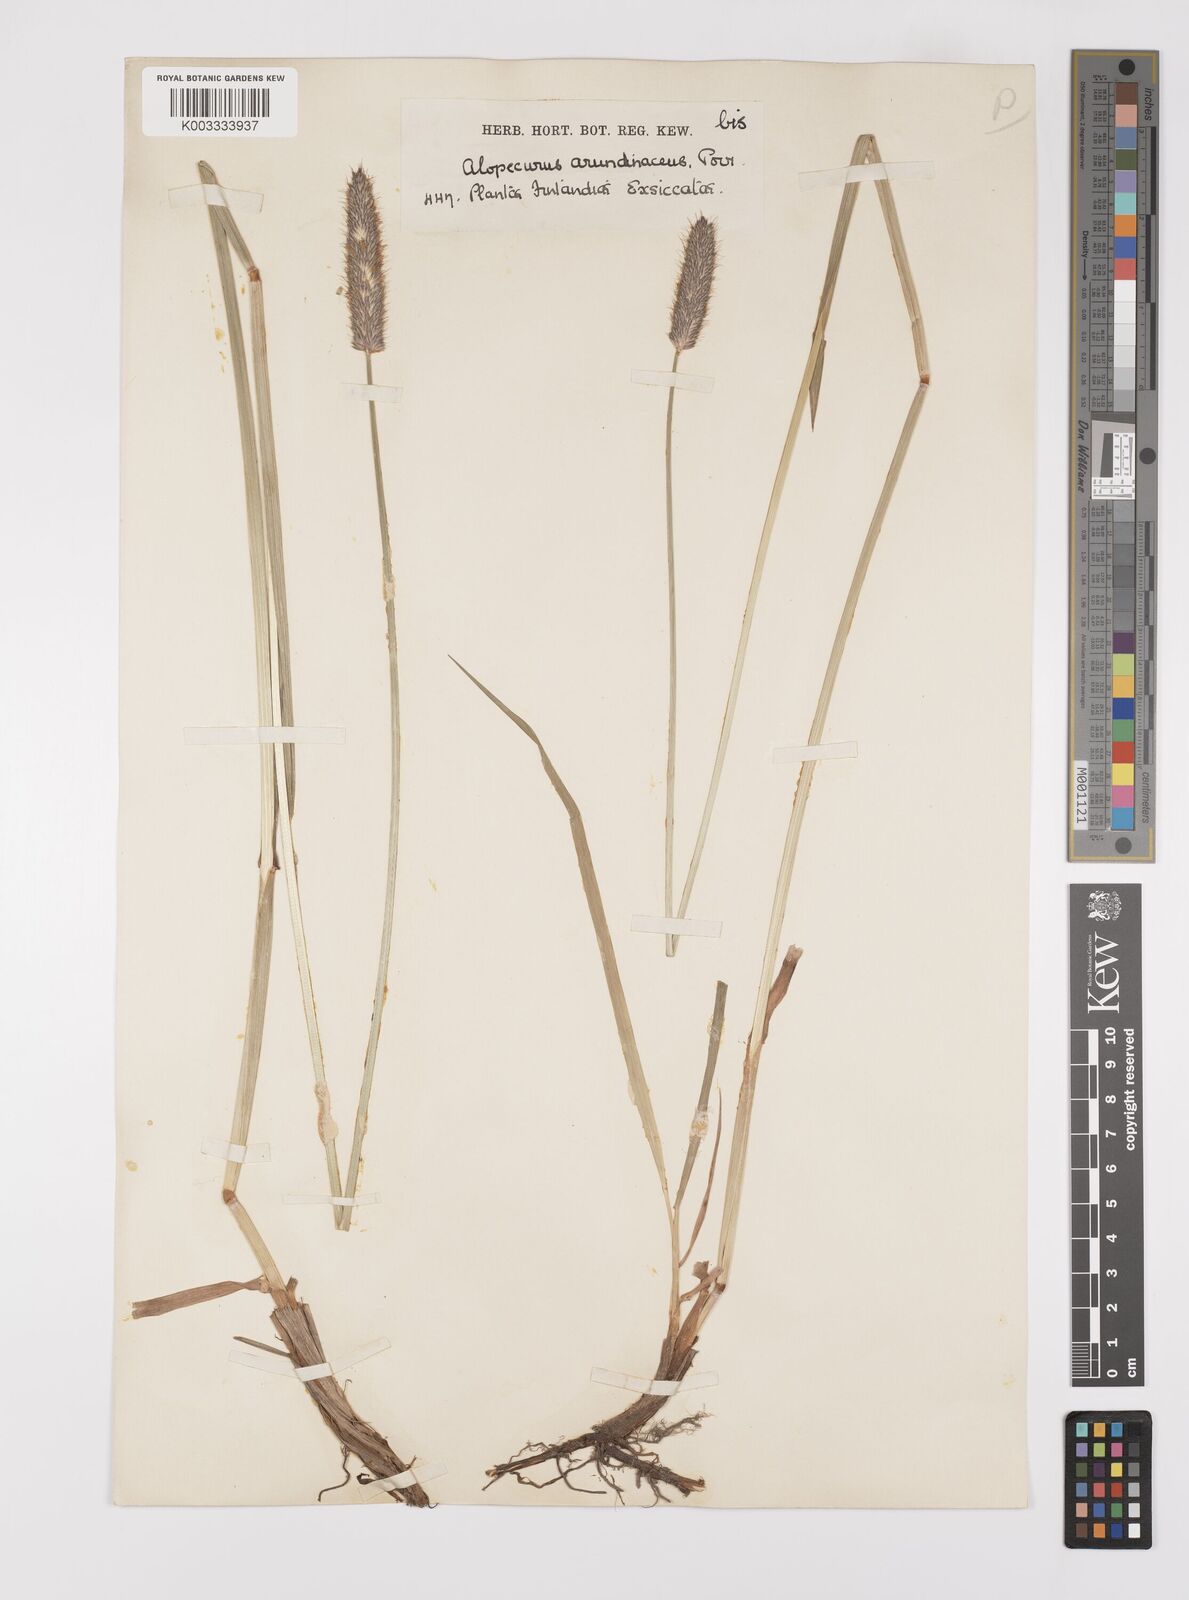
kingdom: Plantae
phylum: Tracheophyta
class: Liliopsida
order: Poales
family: Poaceae
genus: Alopecurus
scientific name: Alopecurus arundinaceus
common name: Creeping meadow foxtail
